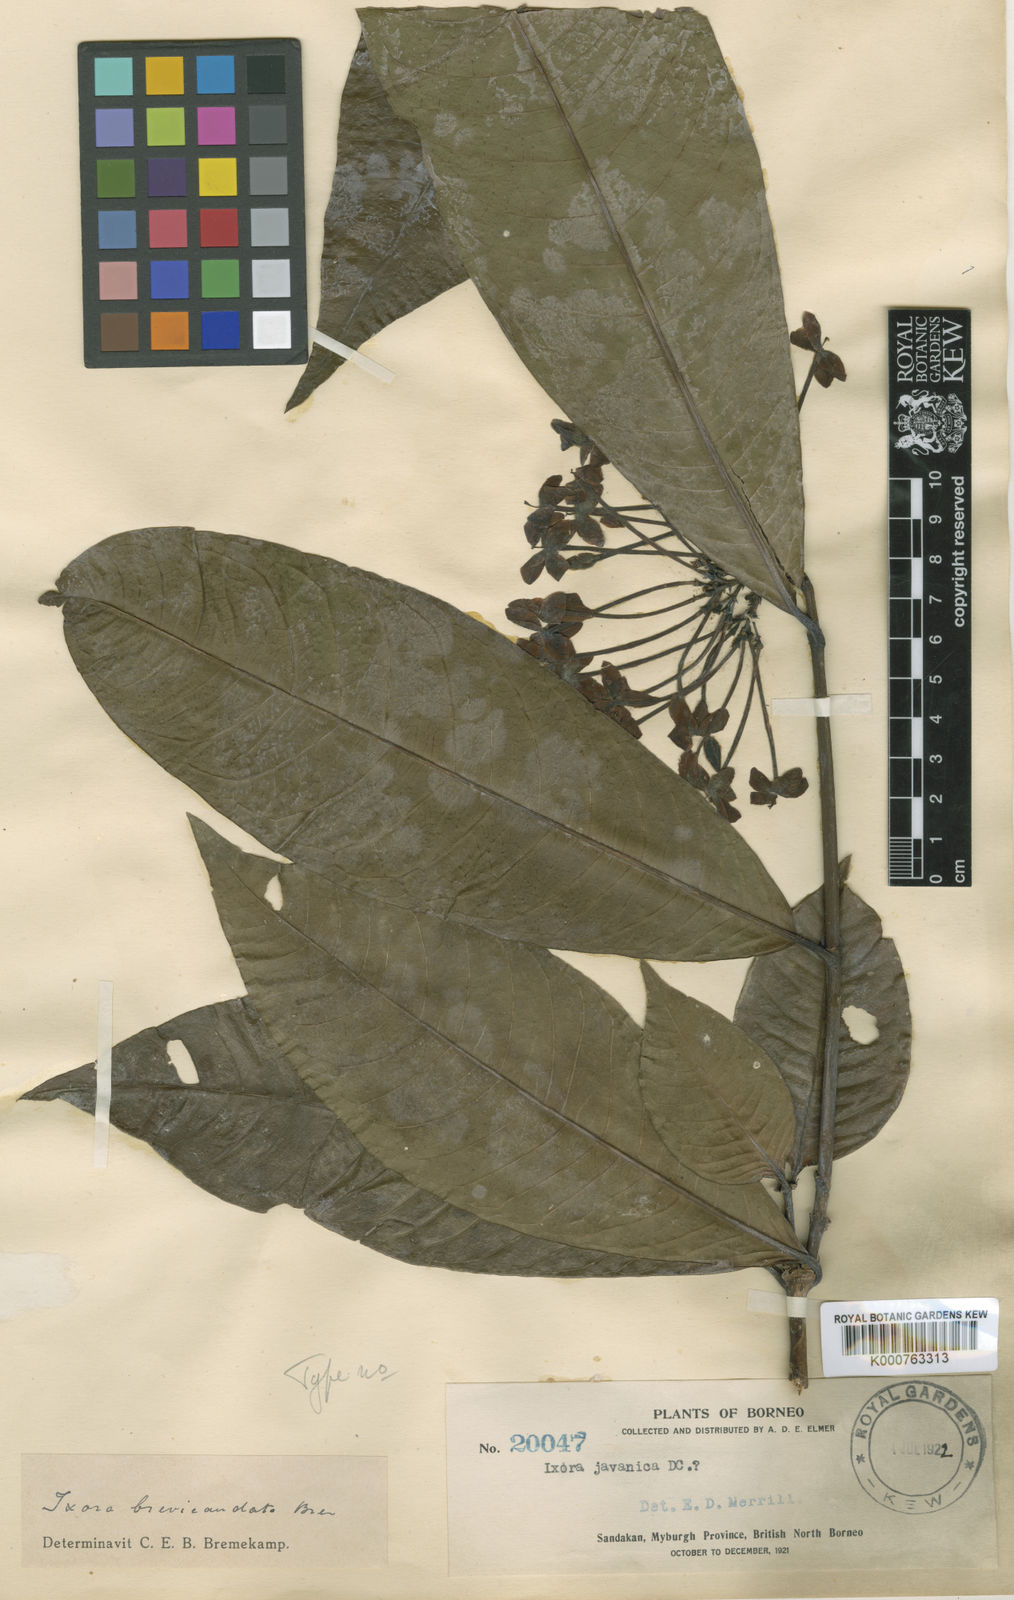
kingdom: Plantae
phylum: Tracheophyta
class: Magnoliopsida
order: Gentianales
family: Rubiaceae
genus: Ixora
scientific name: Ixora brevicaudata
